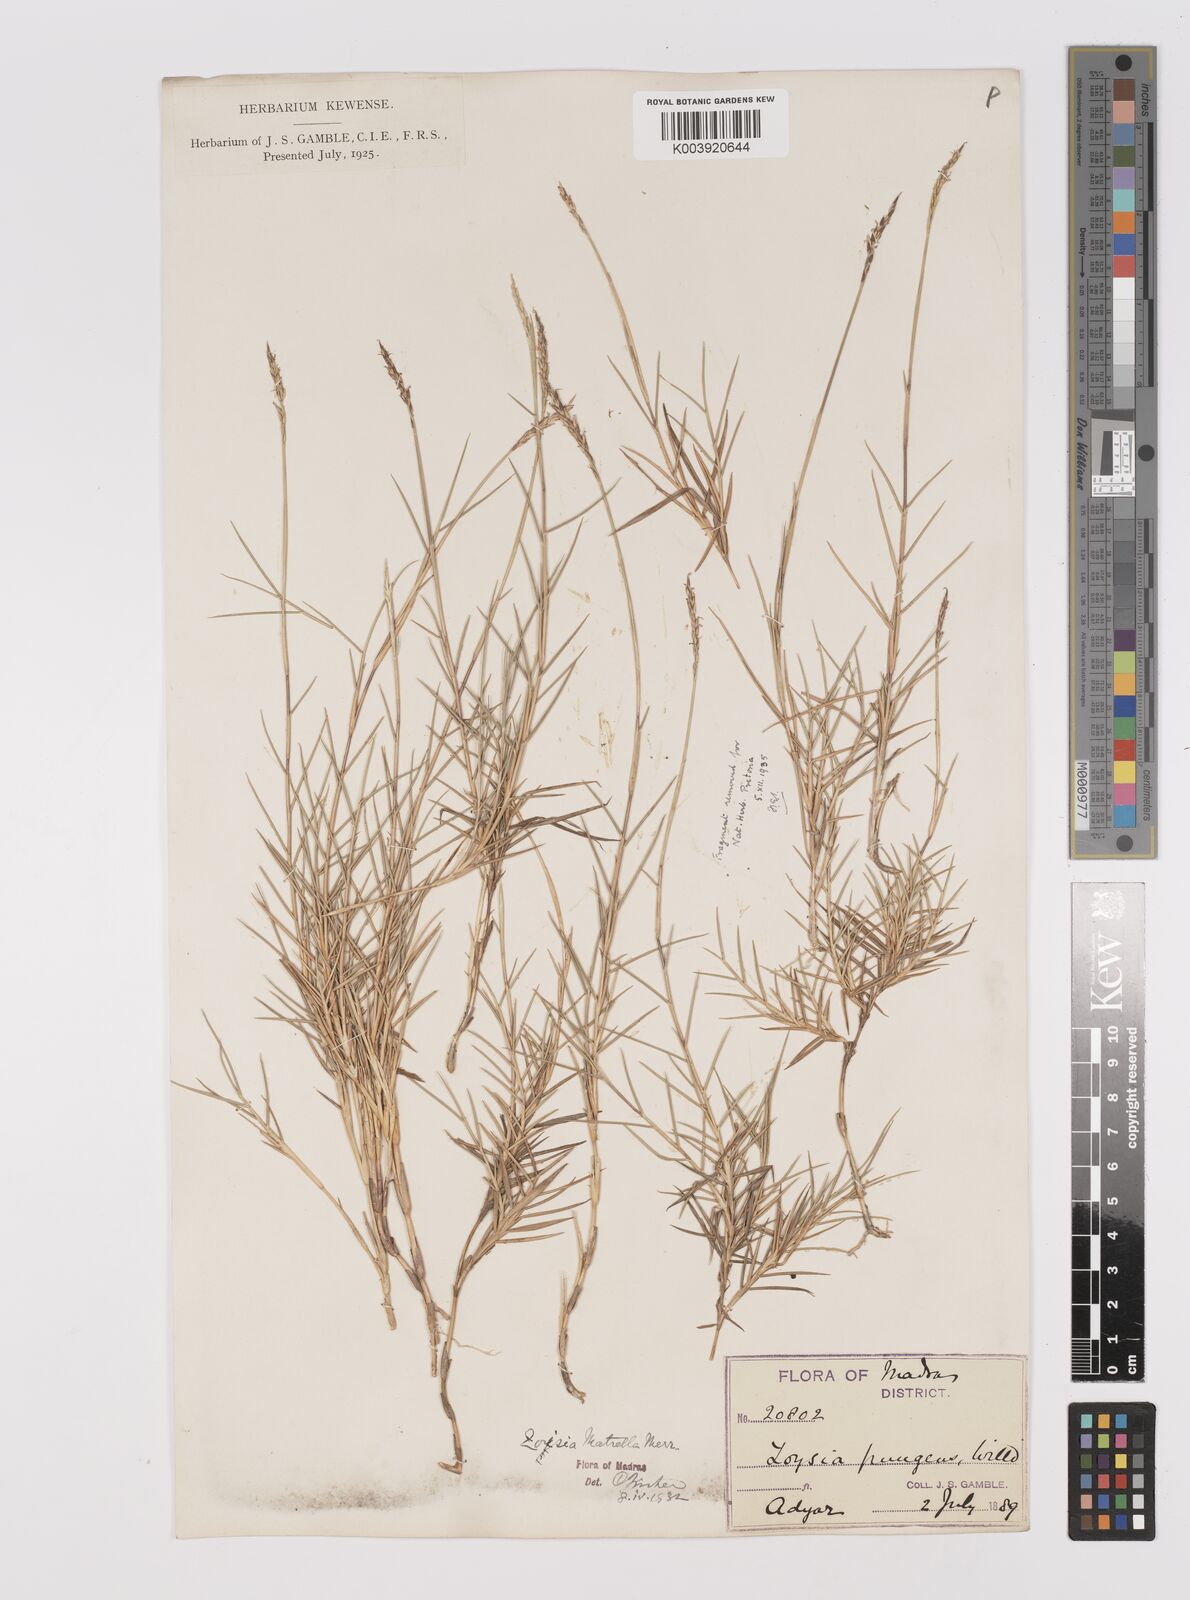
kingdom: Plantae
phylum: Tracheophyta
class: Liliopsida
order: Poales
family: Poaceae
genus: Zoysia
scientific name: Zoysia matrella
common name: Manila grass
